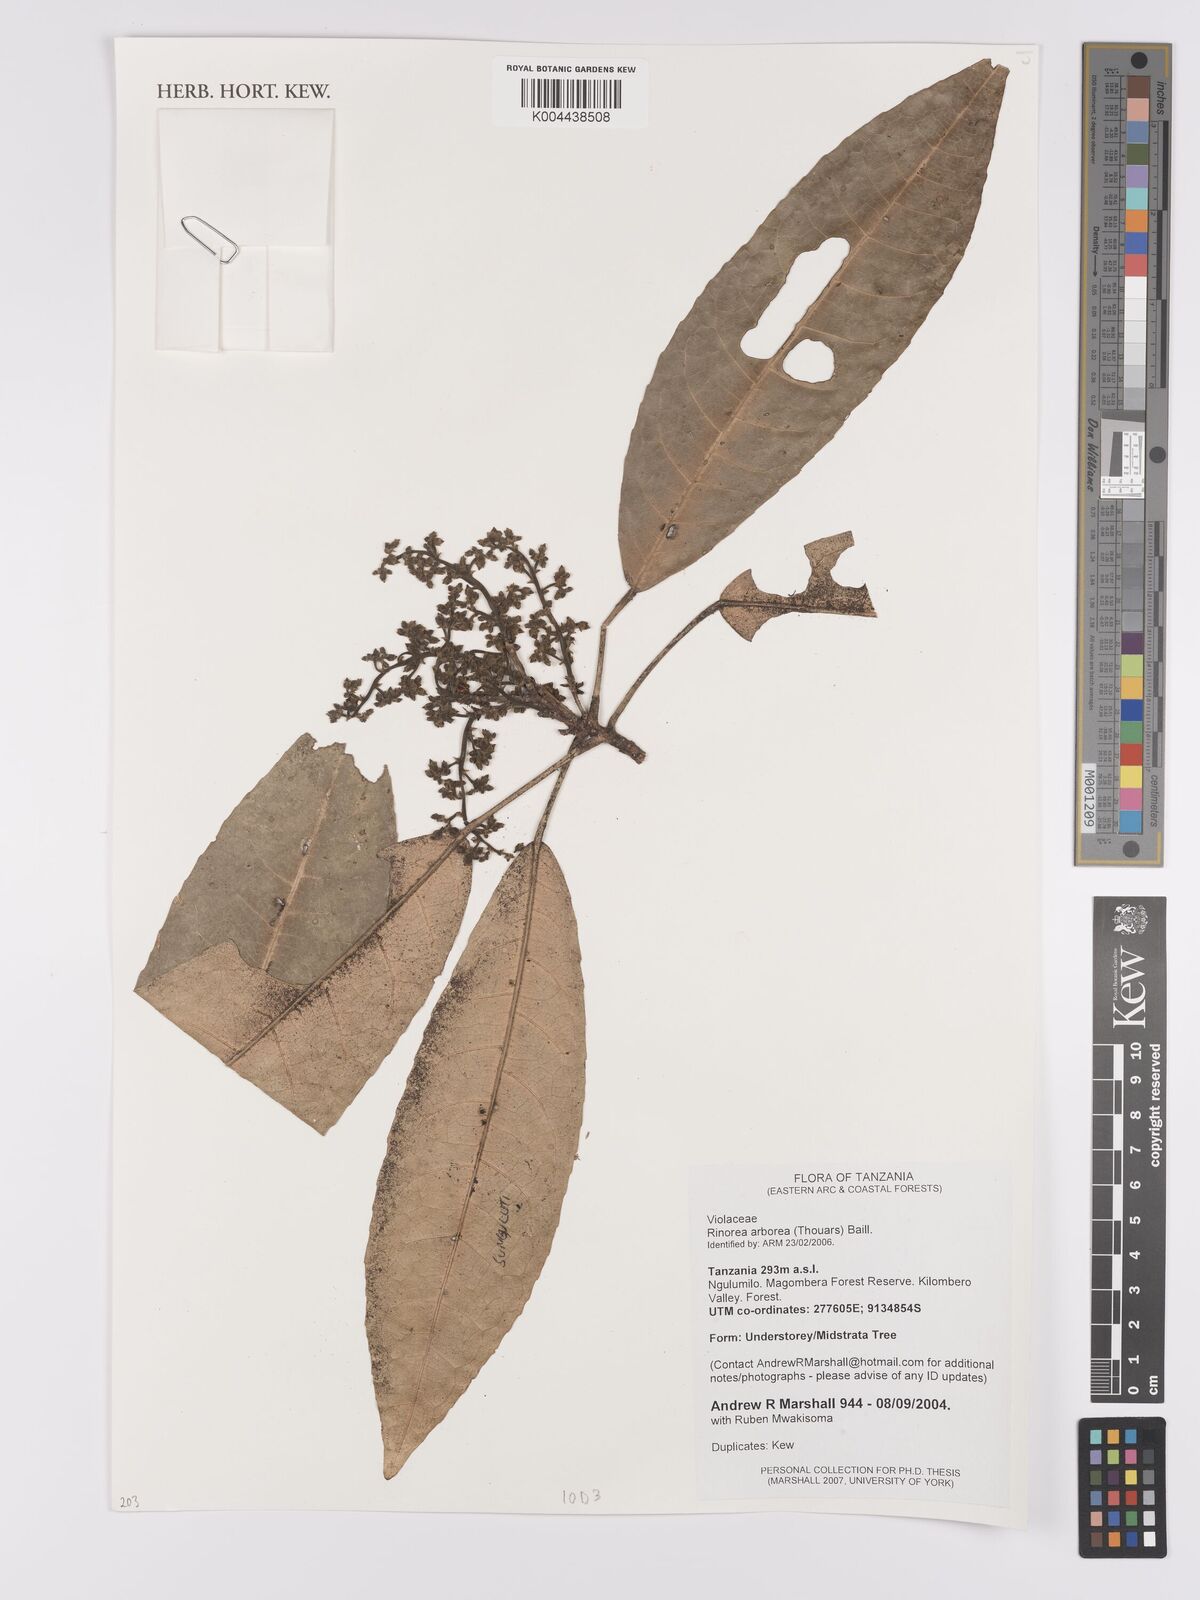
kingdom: Plantae
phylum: Tracheophyta
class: Magnoliopsida
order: Malpighiales
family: Violaceae
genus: Rinorea
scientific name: Rinorea arborea
